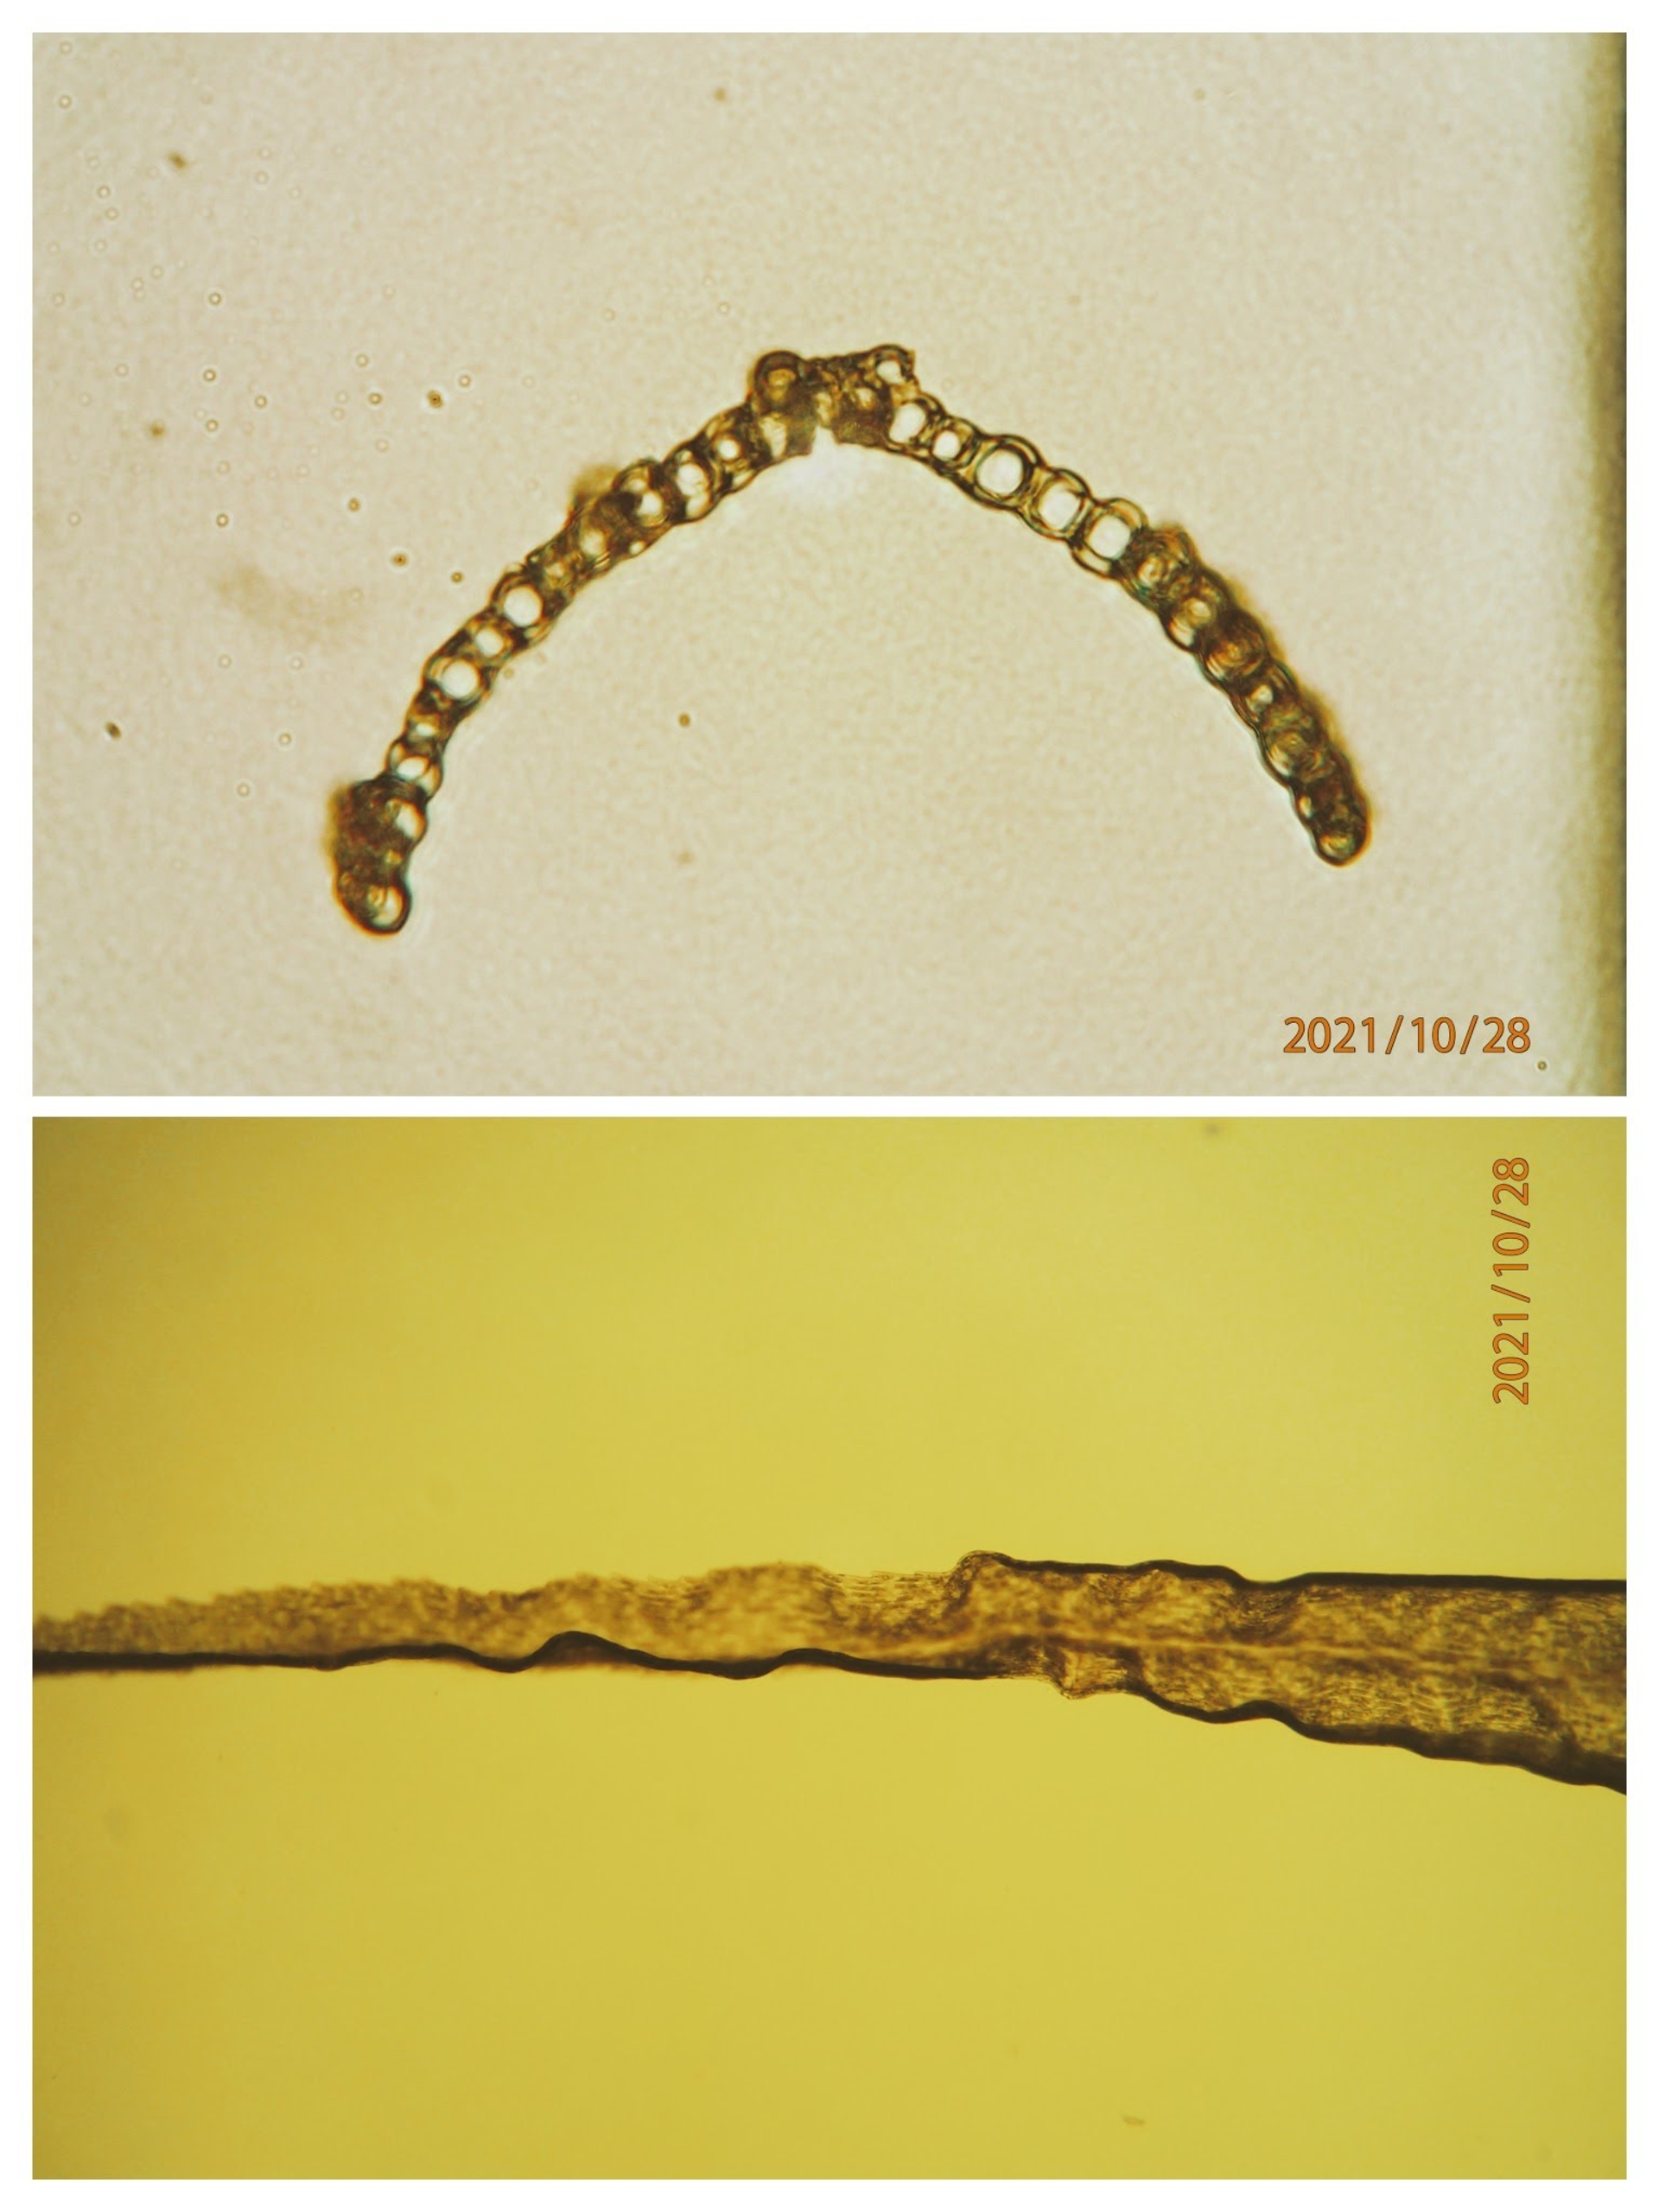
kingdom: Plantae
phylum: Bryophyta
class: Bryopsida
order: Dicranales
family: Dicranaceae
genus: Dicranum
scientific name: Dicranum bonjeanii
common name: Kær-kløvtand
